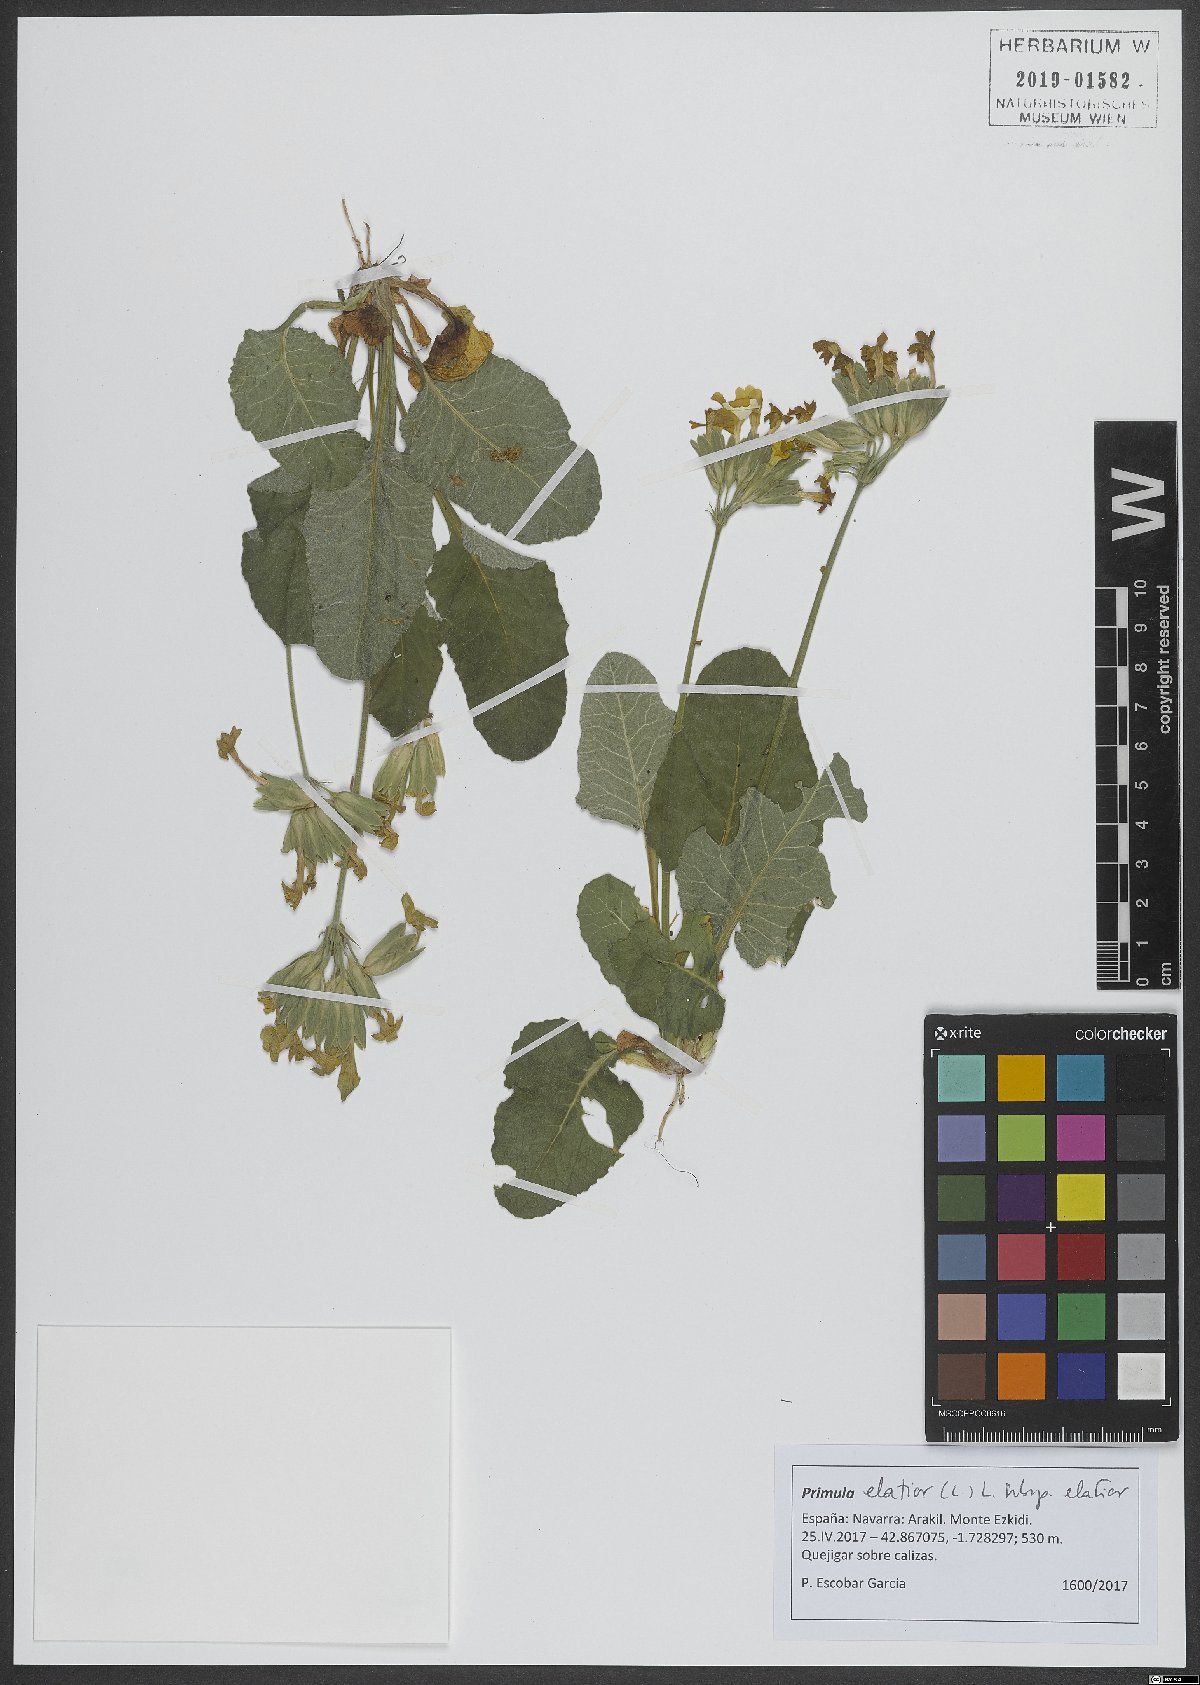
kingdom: Plantae
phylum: Tracheophyta
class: Magnoliopsida
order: Ericales
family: Primulaceae
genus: Primula
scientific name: Primula elatior
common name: Oxlip
